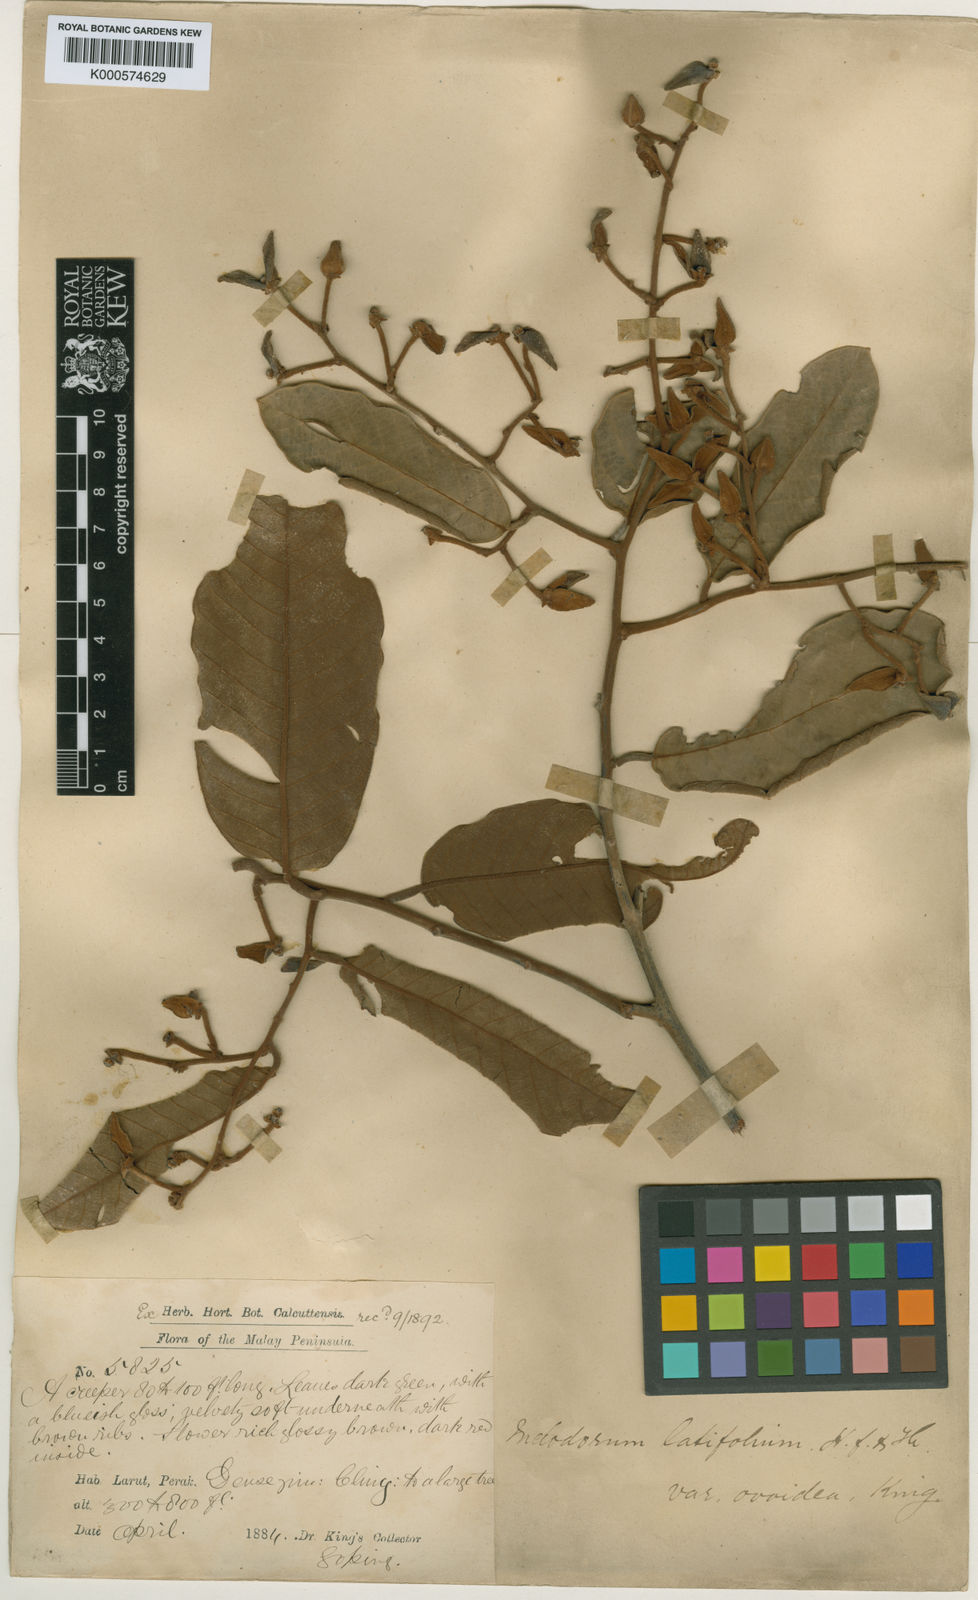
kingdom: Plantae
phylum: Tracheophyta
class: Magnoliopsida
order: Magnoliales
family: Annonaceae
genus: Fissistigma
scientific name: Fissistigma latifolium
